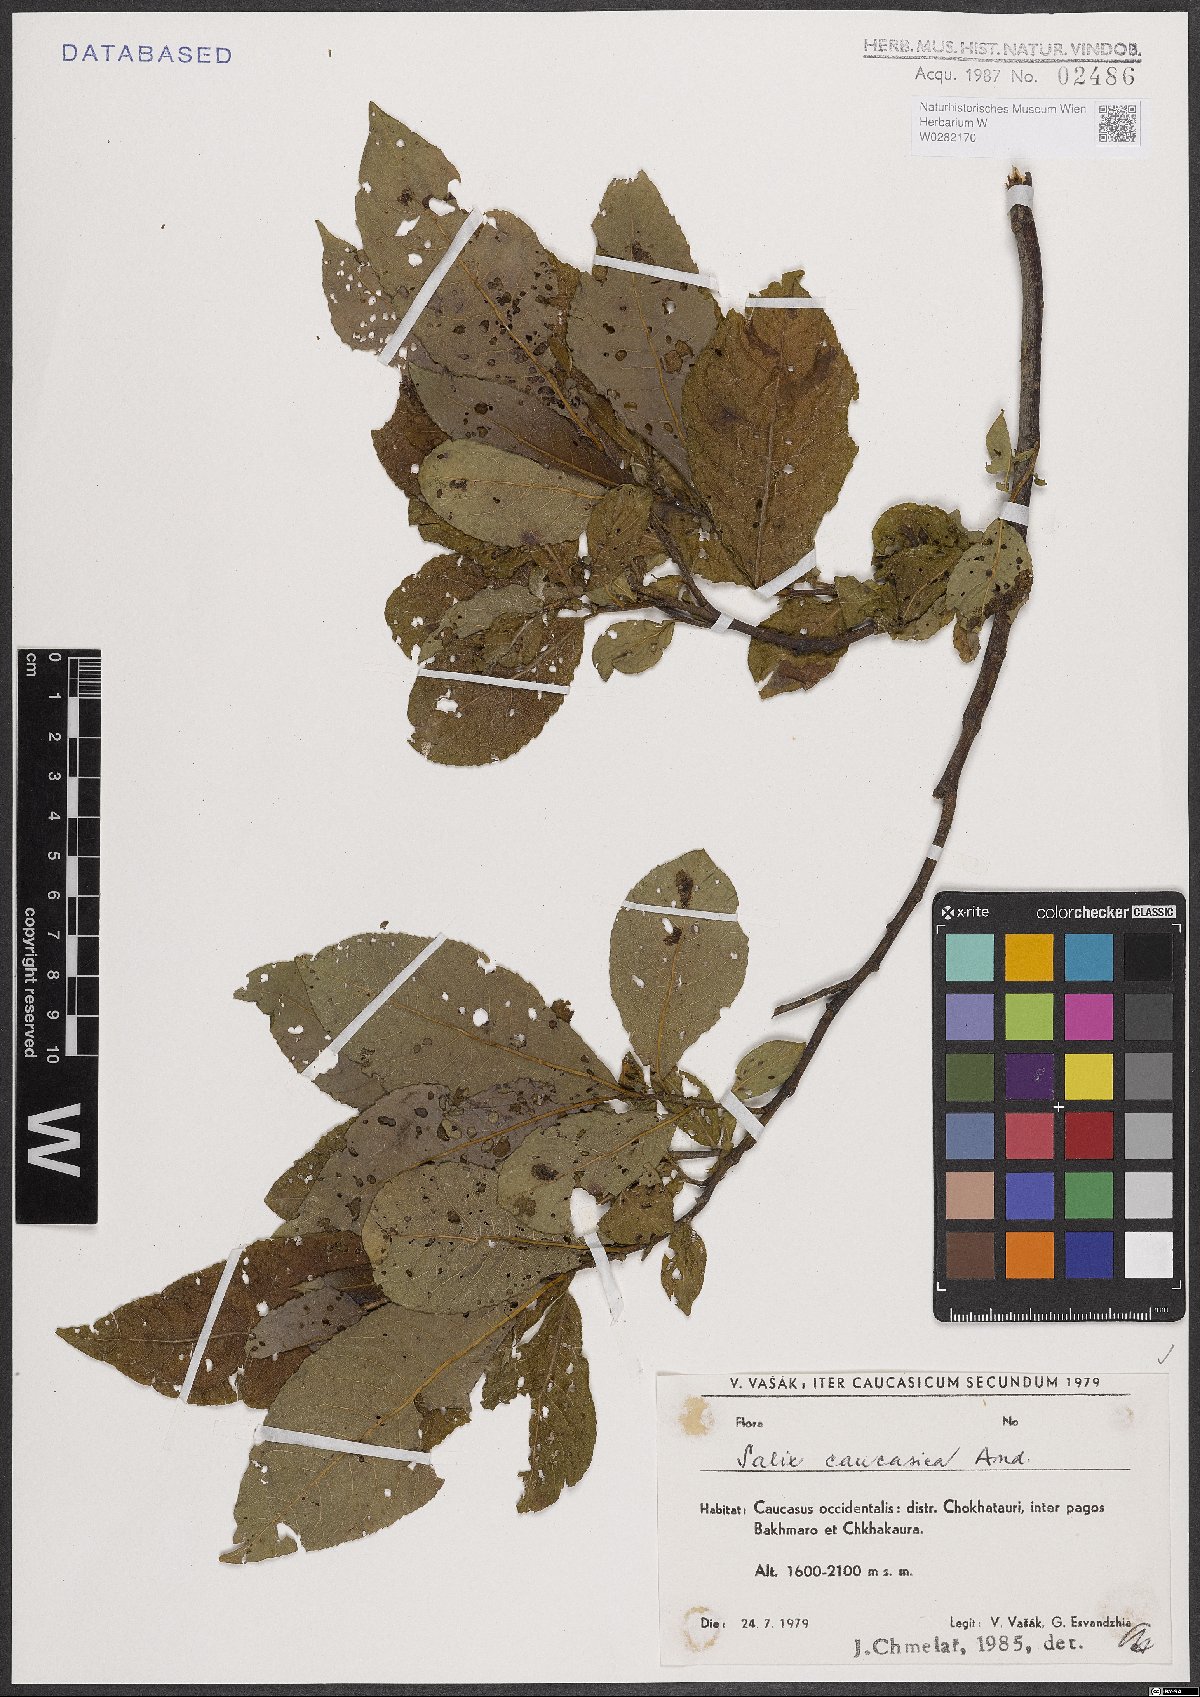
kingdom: Plantae
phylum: Tracheophyta
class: Magnoliopsida
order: Malpighiales
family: Salicaceae
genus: Salix
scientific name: Salix caucasica
